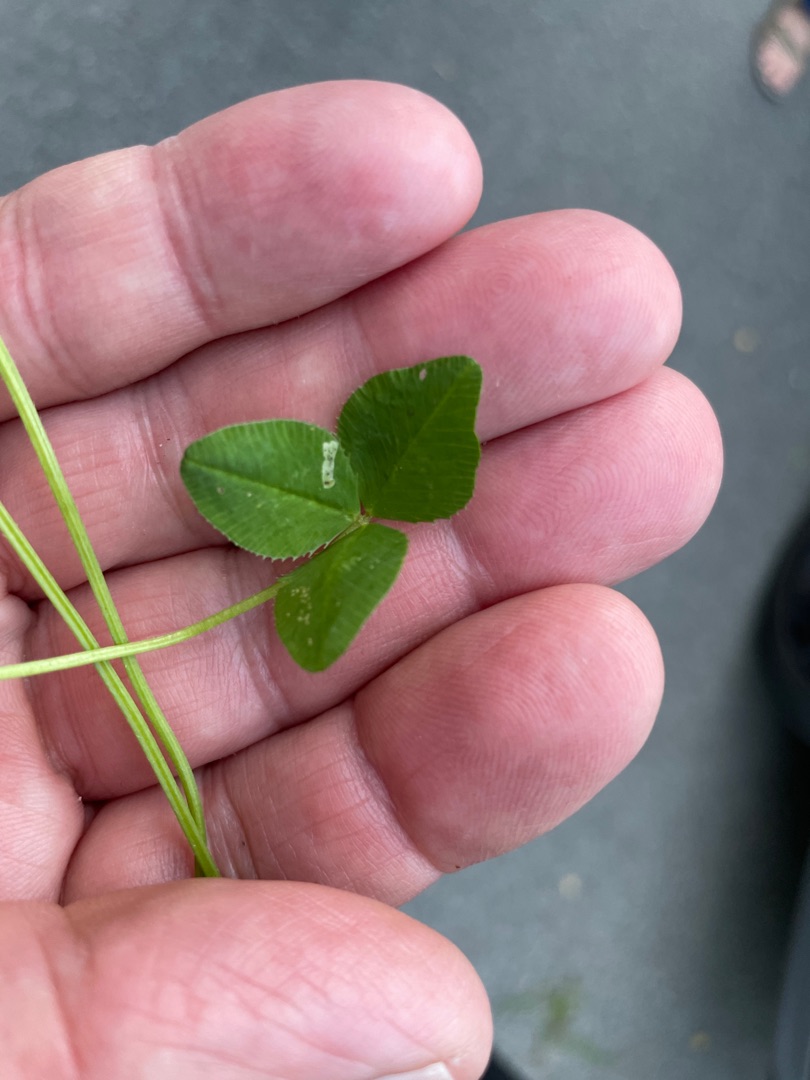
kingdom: Plantae
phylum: Tracheophyta
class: Magnoliopsida
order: Fabales
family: Fabaceae
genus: Trifolium
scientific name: Trifolium repens
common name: Hvid-kløver
